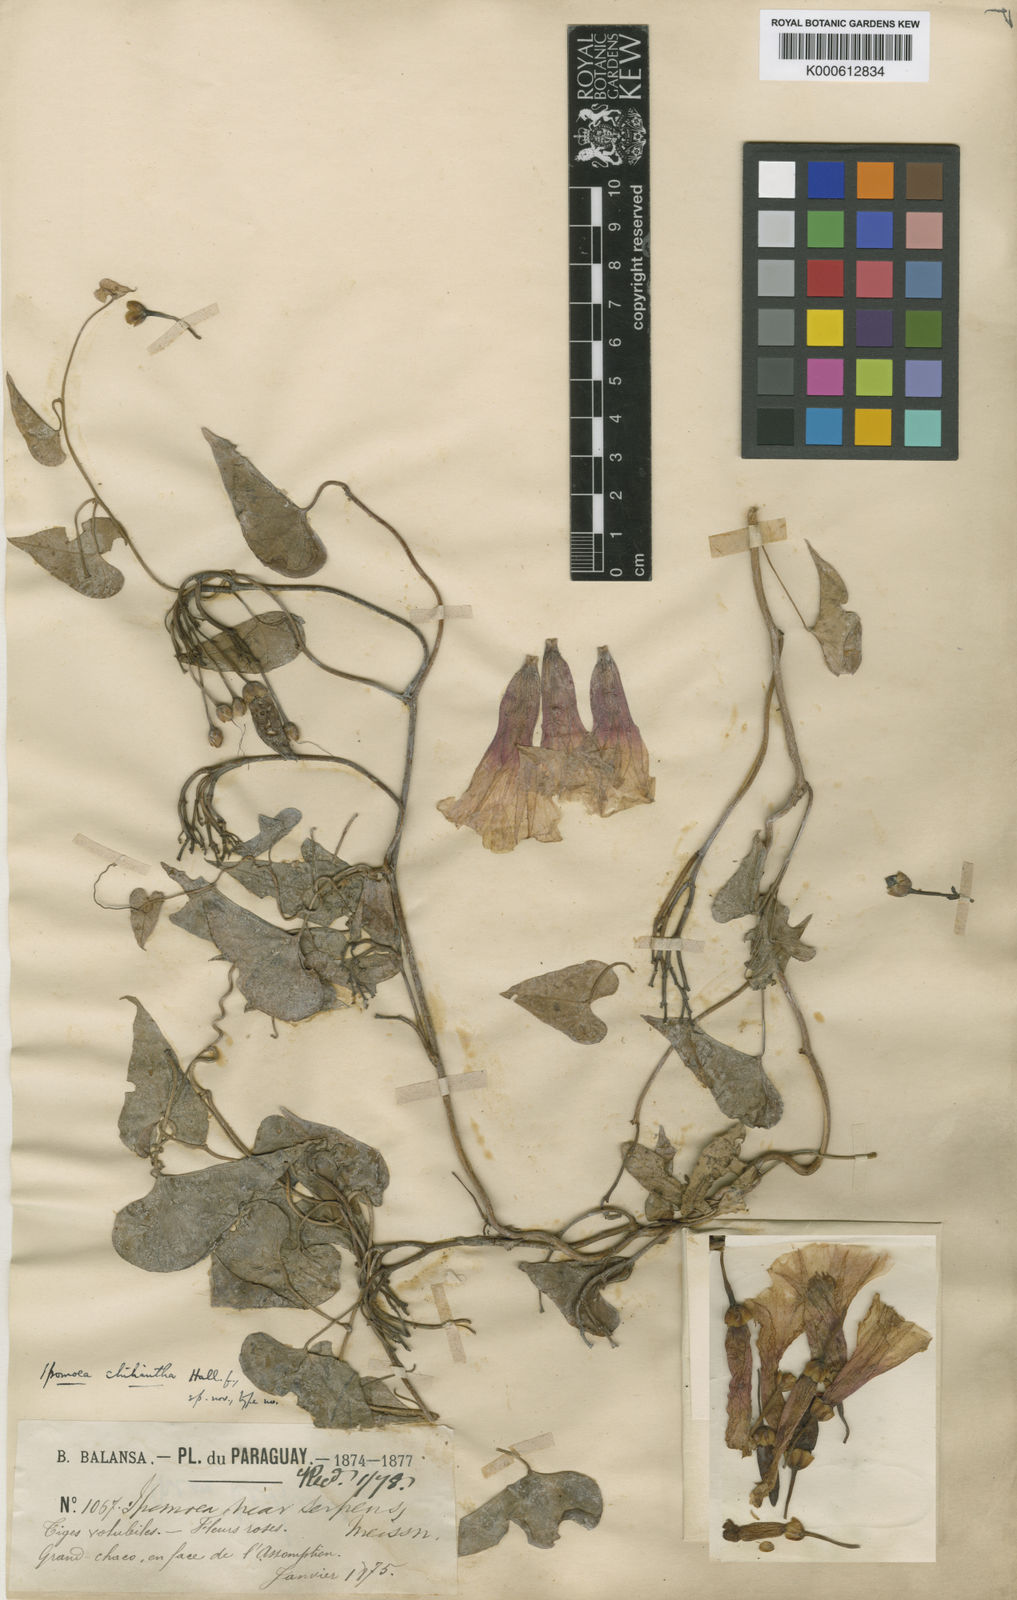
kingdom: Plantae
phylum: Tracheophyta
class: Magnoliopsida
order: Solanales
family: Convolvulaceae
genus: Ipomoea
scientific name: Ipomoea amnicola
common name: Redcenter morning-glory
